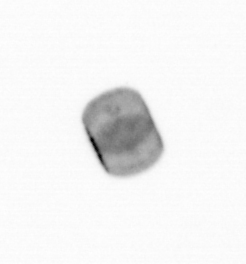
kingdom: Chromista
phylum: Ochrophyta
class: Bacillariophyceae
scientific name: Bacillariophyceae
